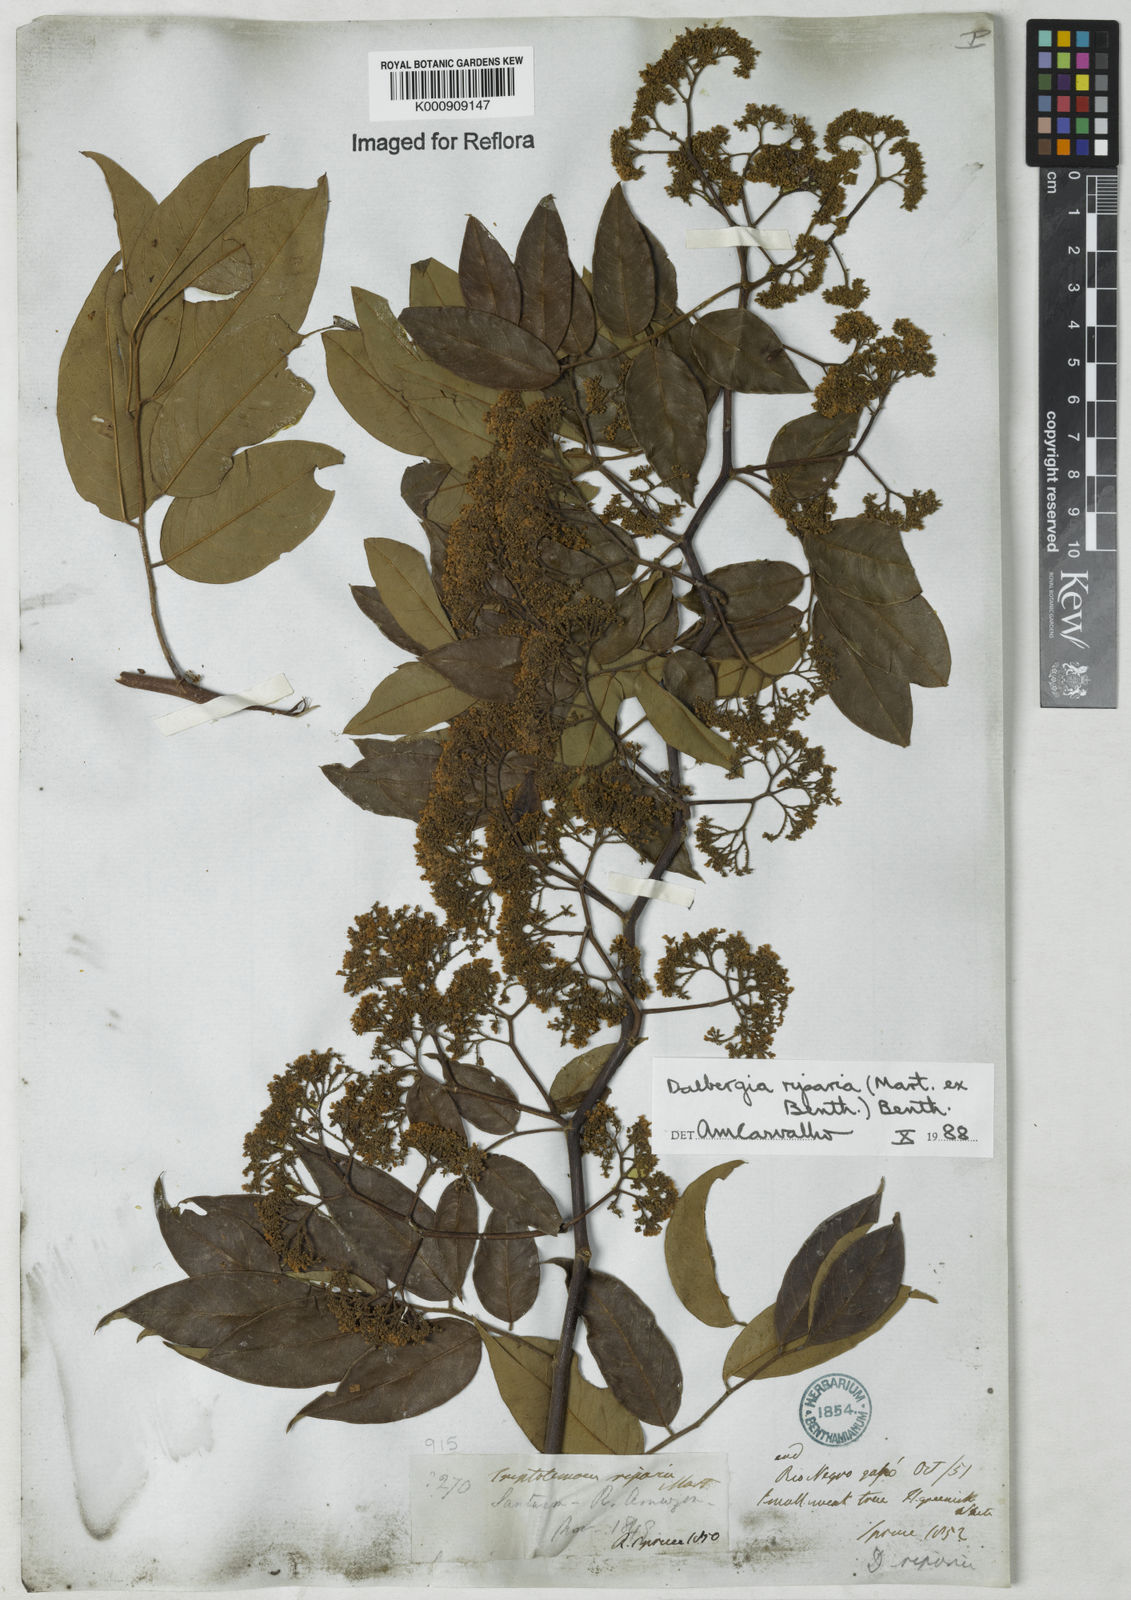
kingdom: Plantae
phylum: Tracheophyta
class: Magnoliopsida
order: Fabales
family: Fabaceae
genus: Dalbergia
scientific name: Dalbergia riparia
